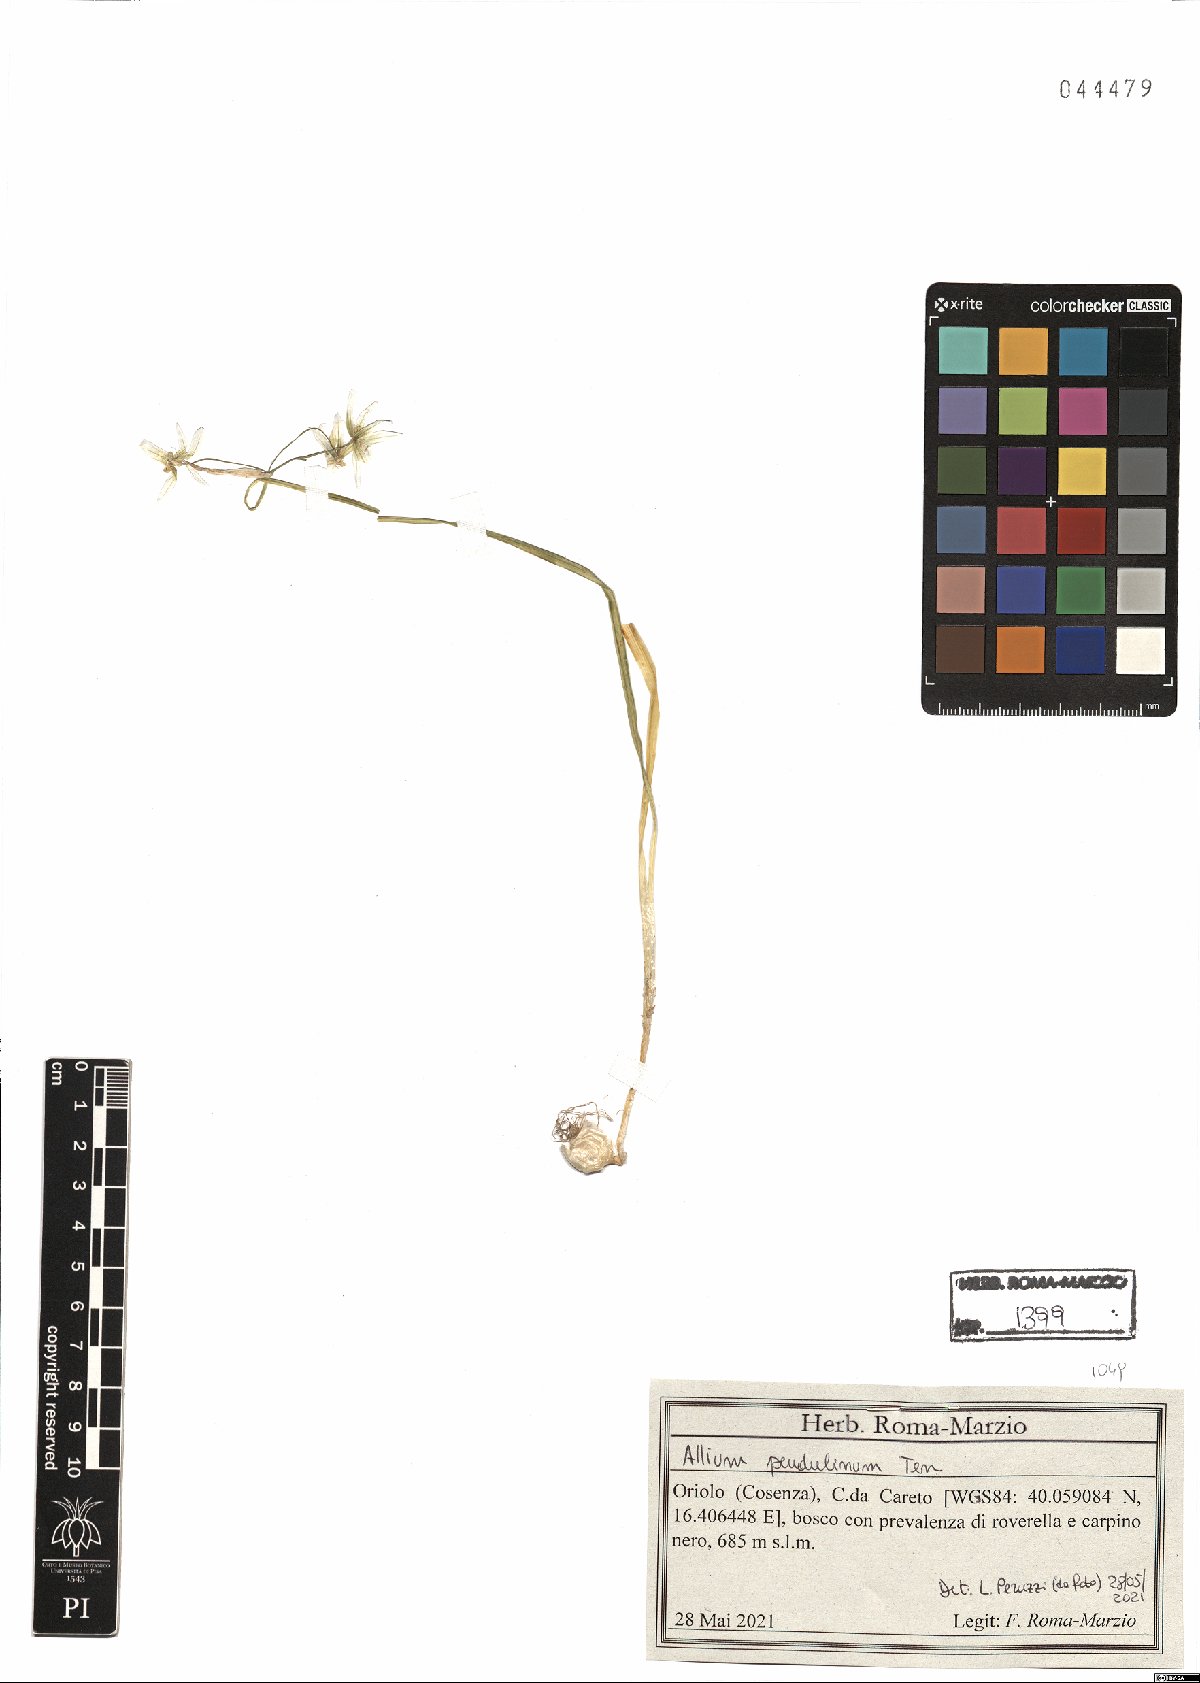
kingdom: Plantae
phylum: Tracheophyta
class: Liliopsida
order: Asparagales
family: Amaryllidaceae
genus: Allium
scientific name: Allium pendulinum
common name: Italian garlic
